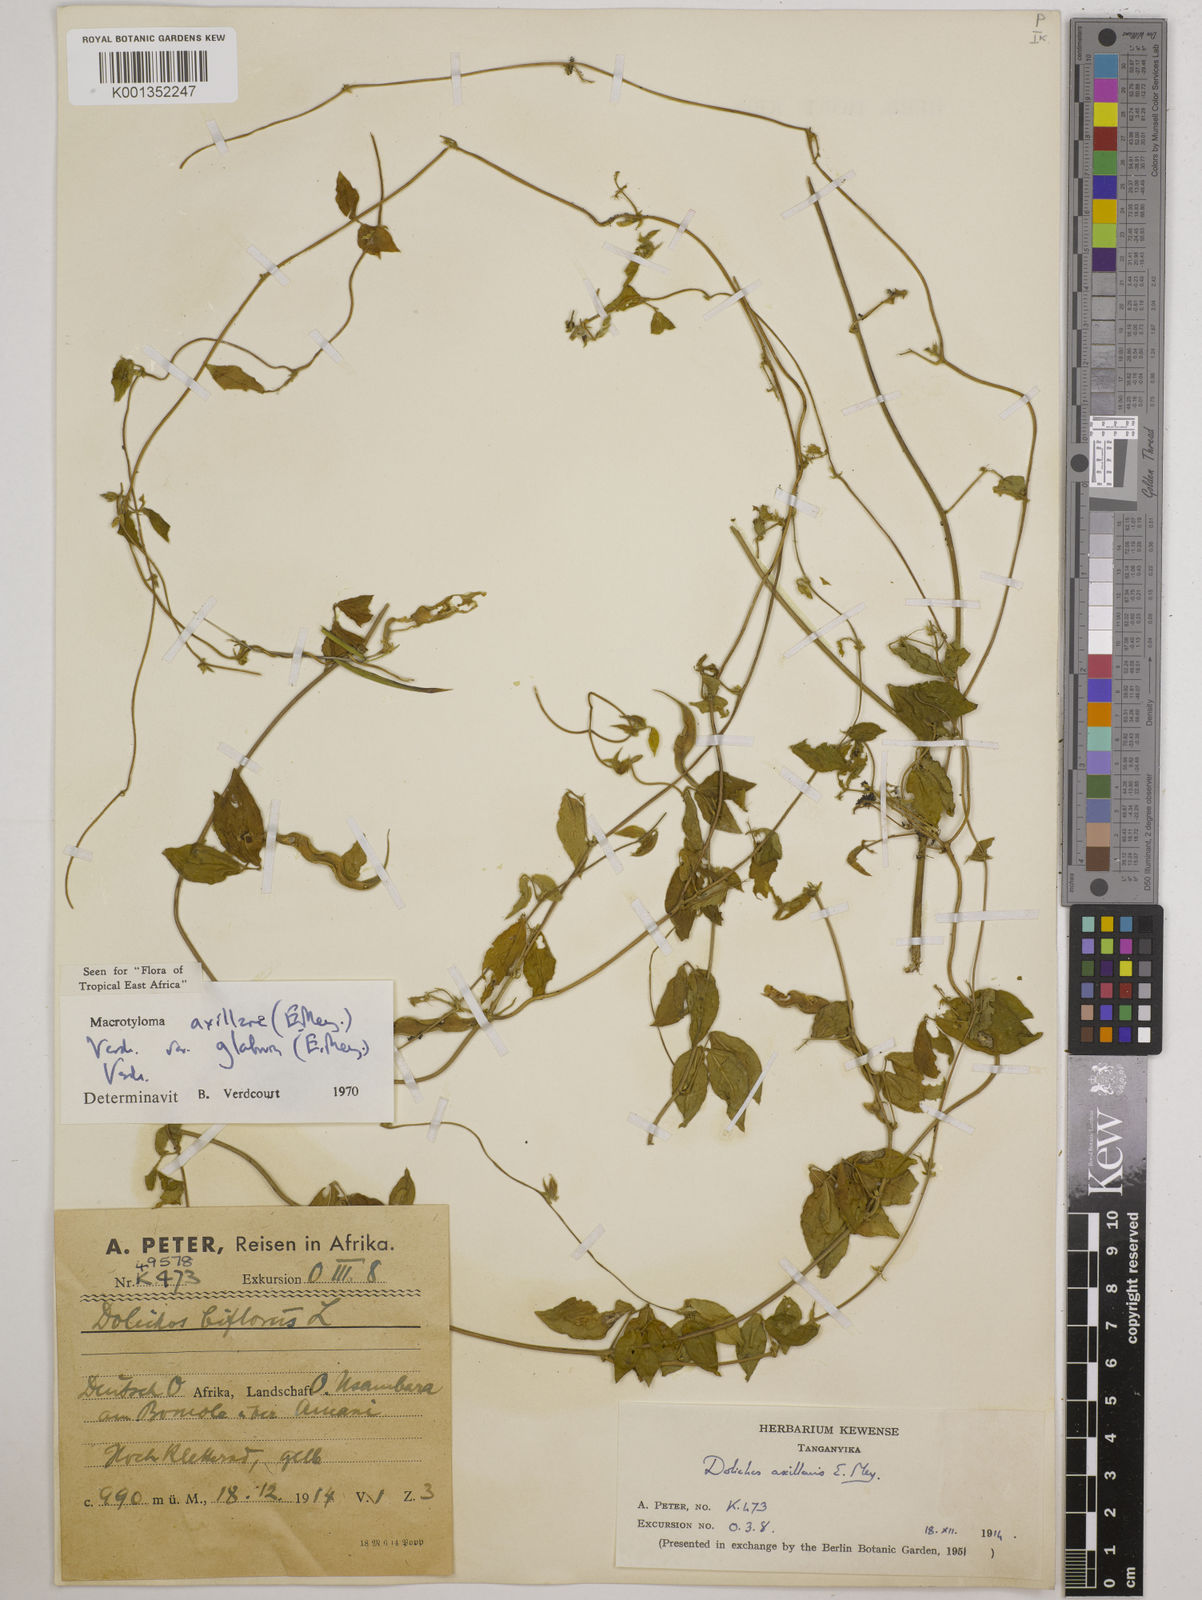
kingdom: Plantae
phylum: Tracheophyta
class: Magnoliopsida
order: Fabales
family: Fabaceae
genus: Macrotyloma
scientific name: Macrotyloma
